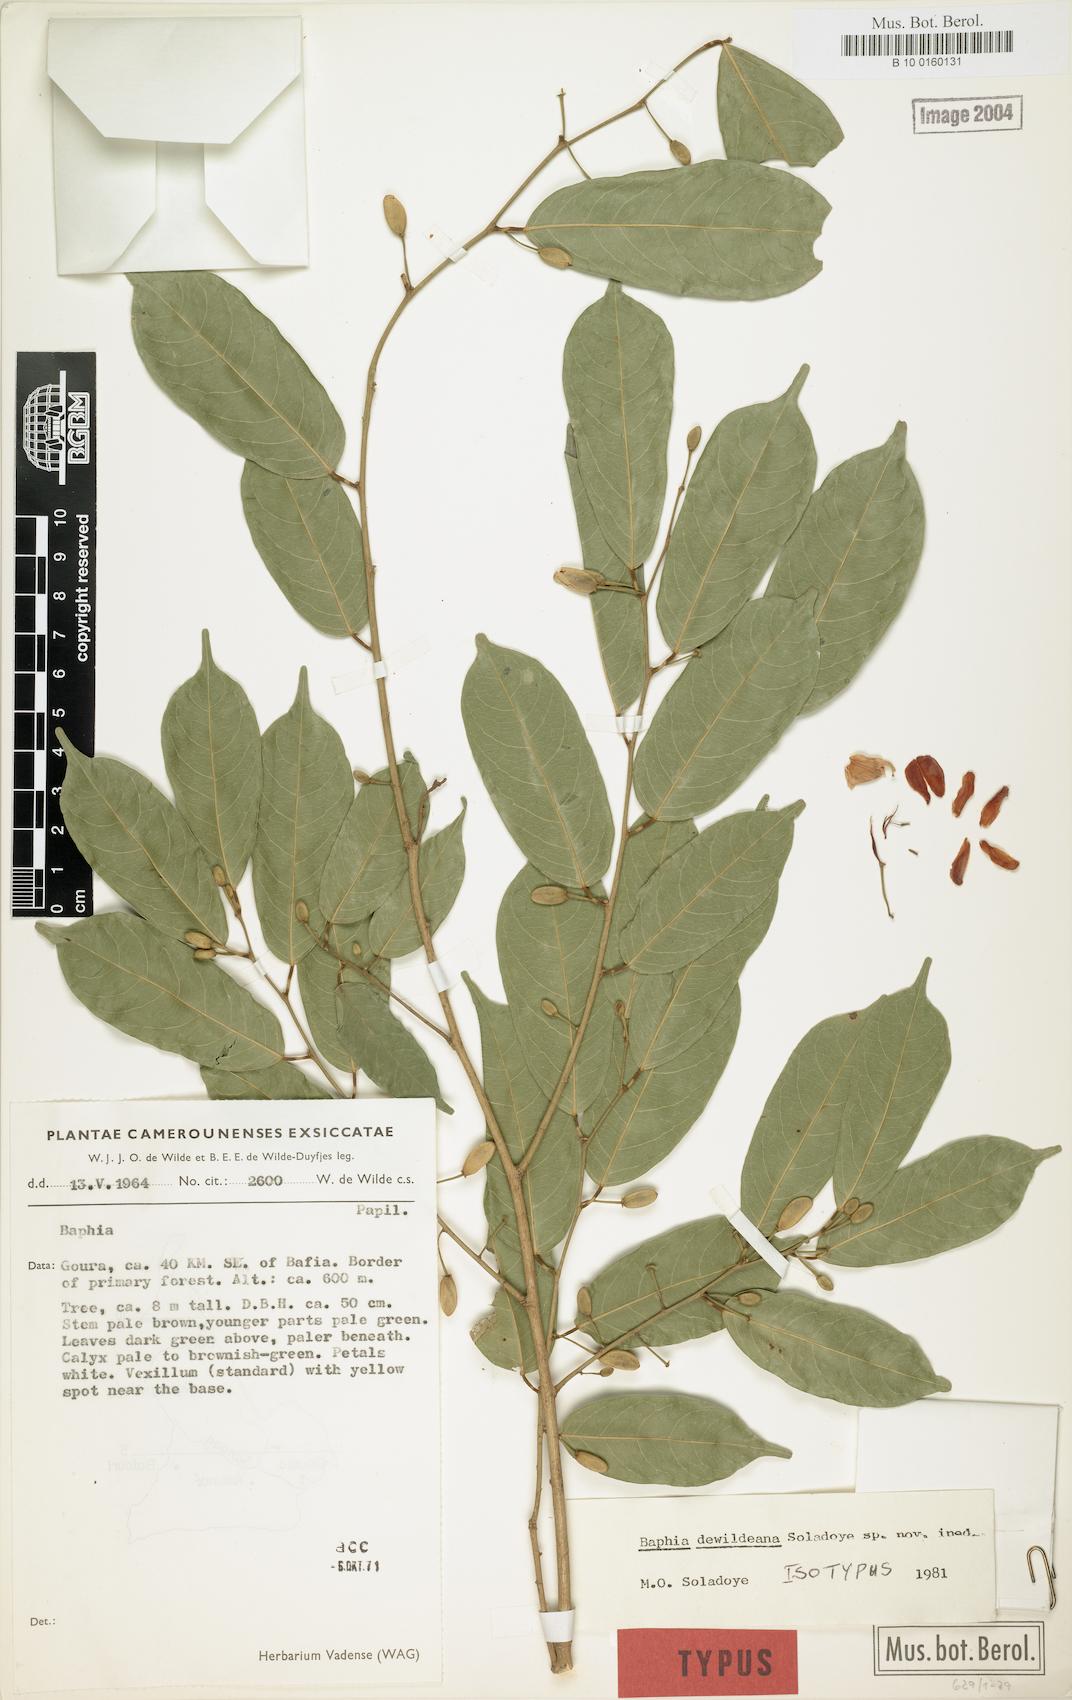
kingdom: Plantae
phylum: Tracheophyta
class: Magnoliopsida
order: Fabales
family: Fabaceae
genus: Baphia
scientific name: Baphia dewildeana
